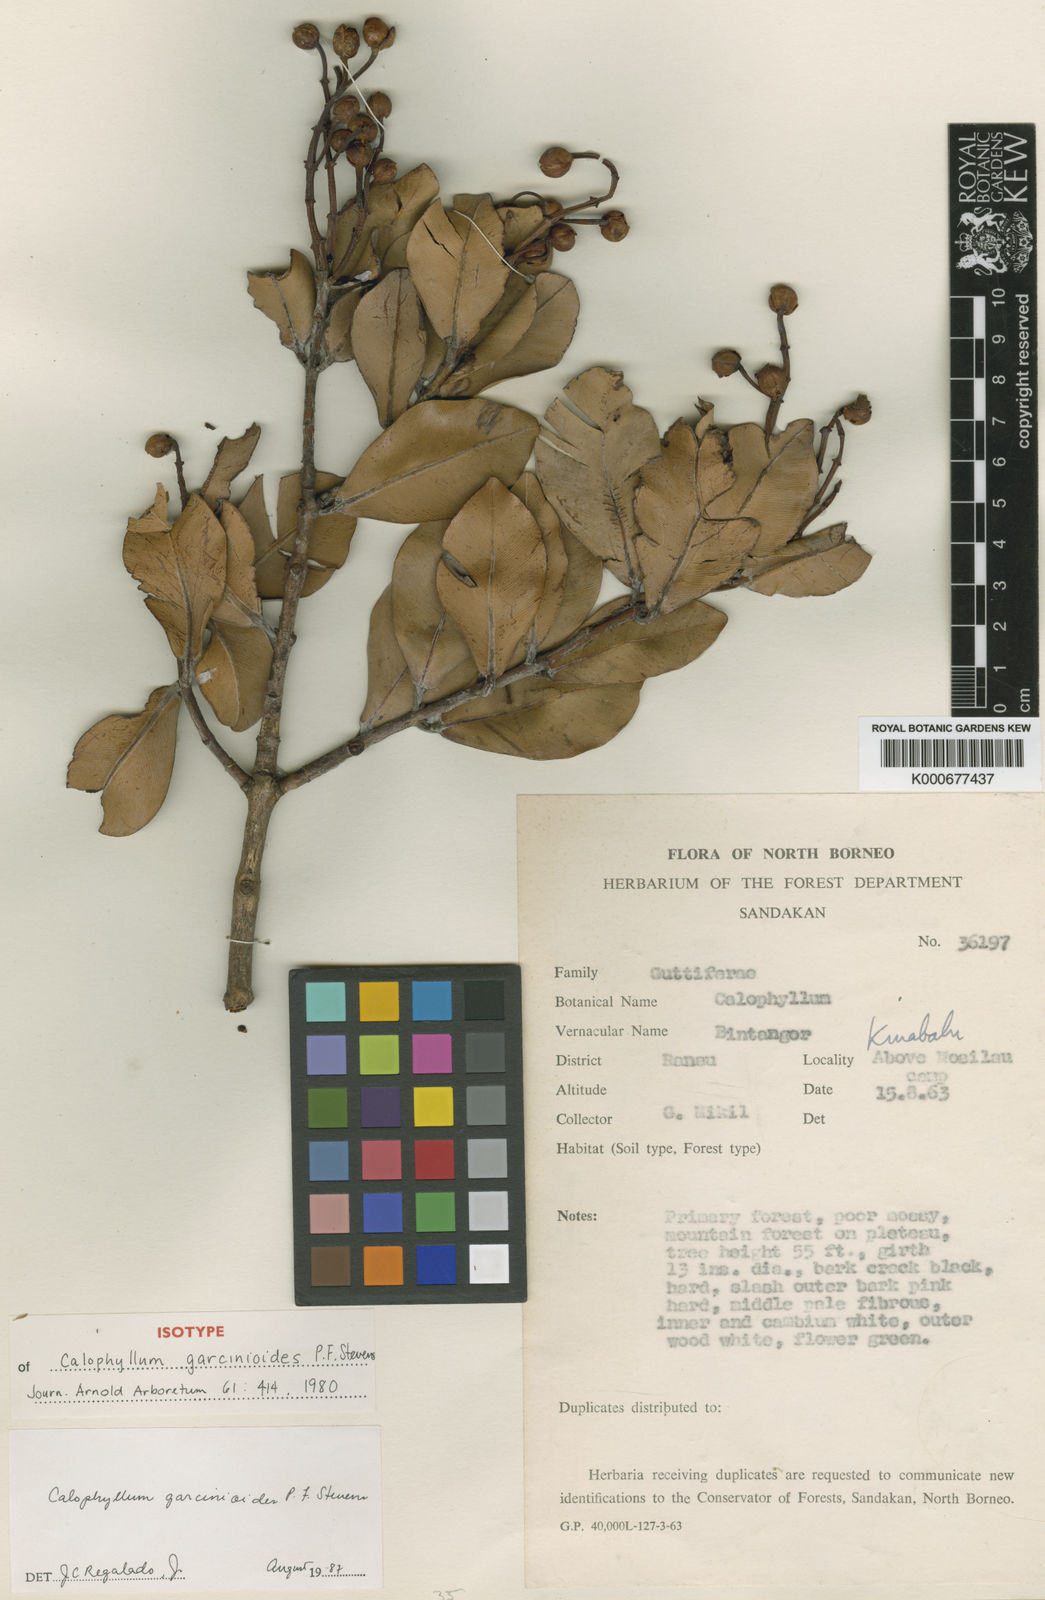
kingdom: Plantae
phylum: Tracheophyta
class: Magnoliopsida
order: Malpighiales
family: Calophyllaceae
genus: Calophyllum
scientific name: Calophyllum garcinioides
